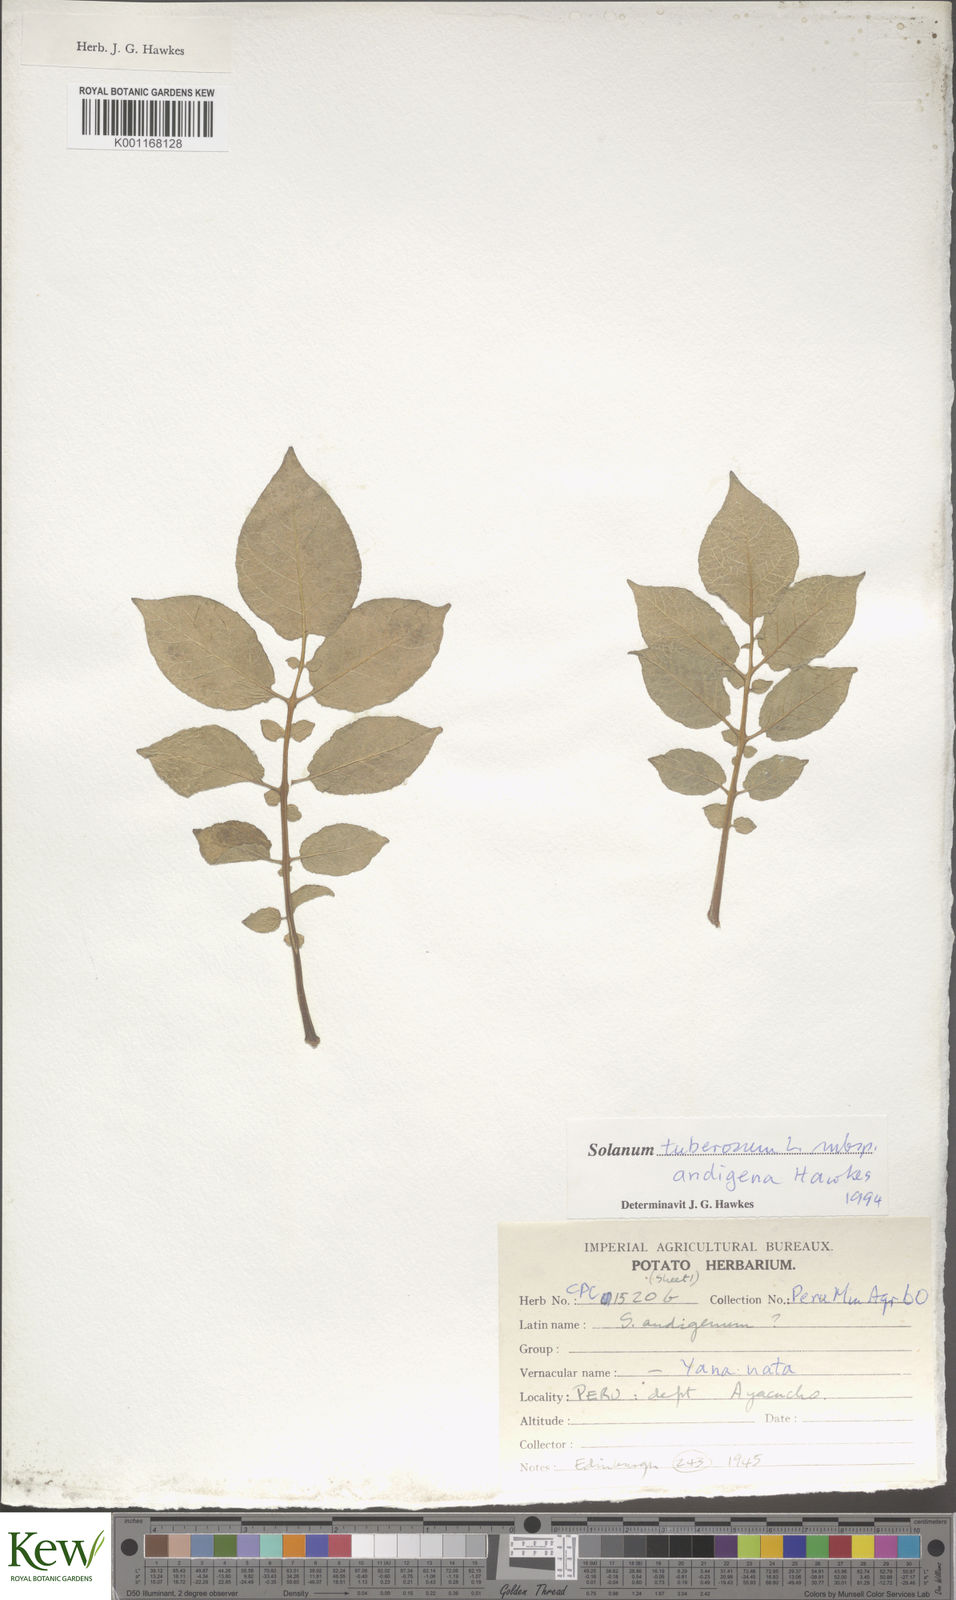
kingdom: Plantae
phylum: Tracheophyta
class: Magnoliopsida
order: Solanales
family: Solanaceae
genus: Solanum
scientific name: Solanum tuberosum
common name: Potato
